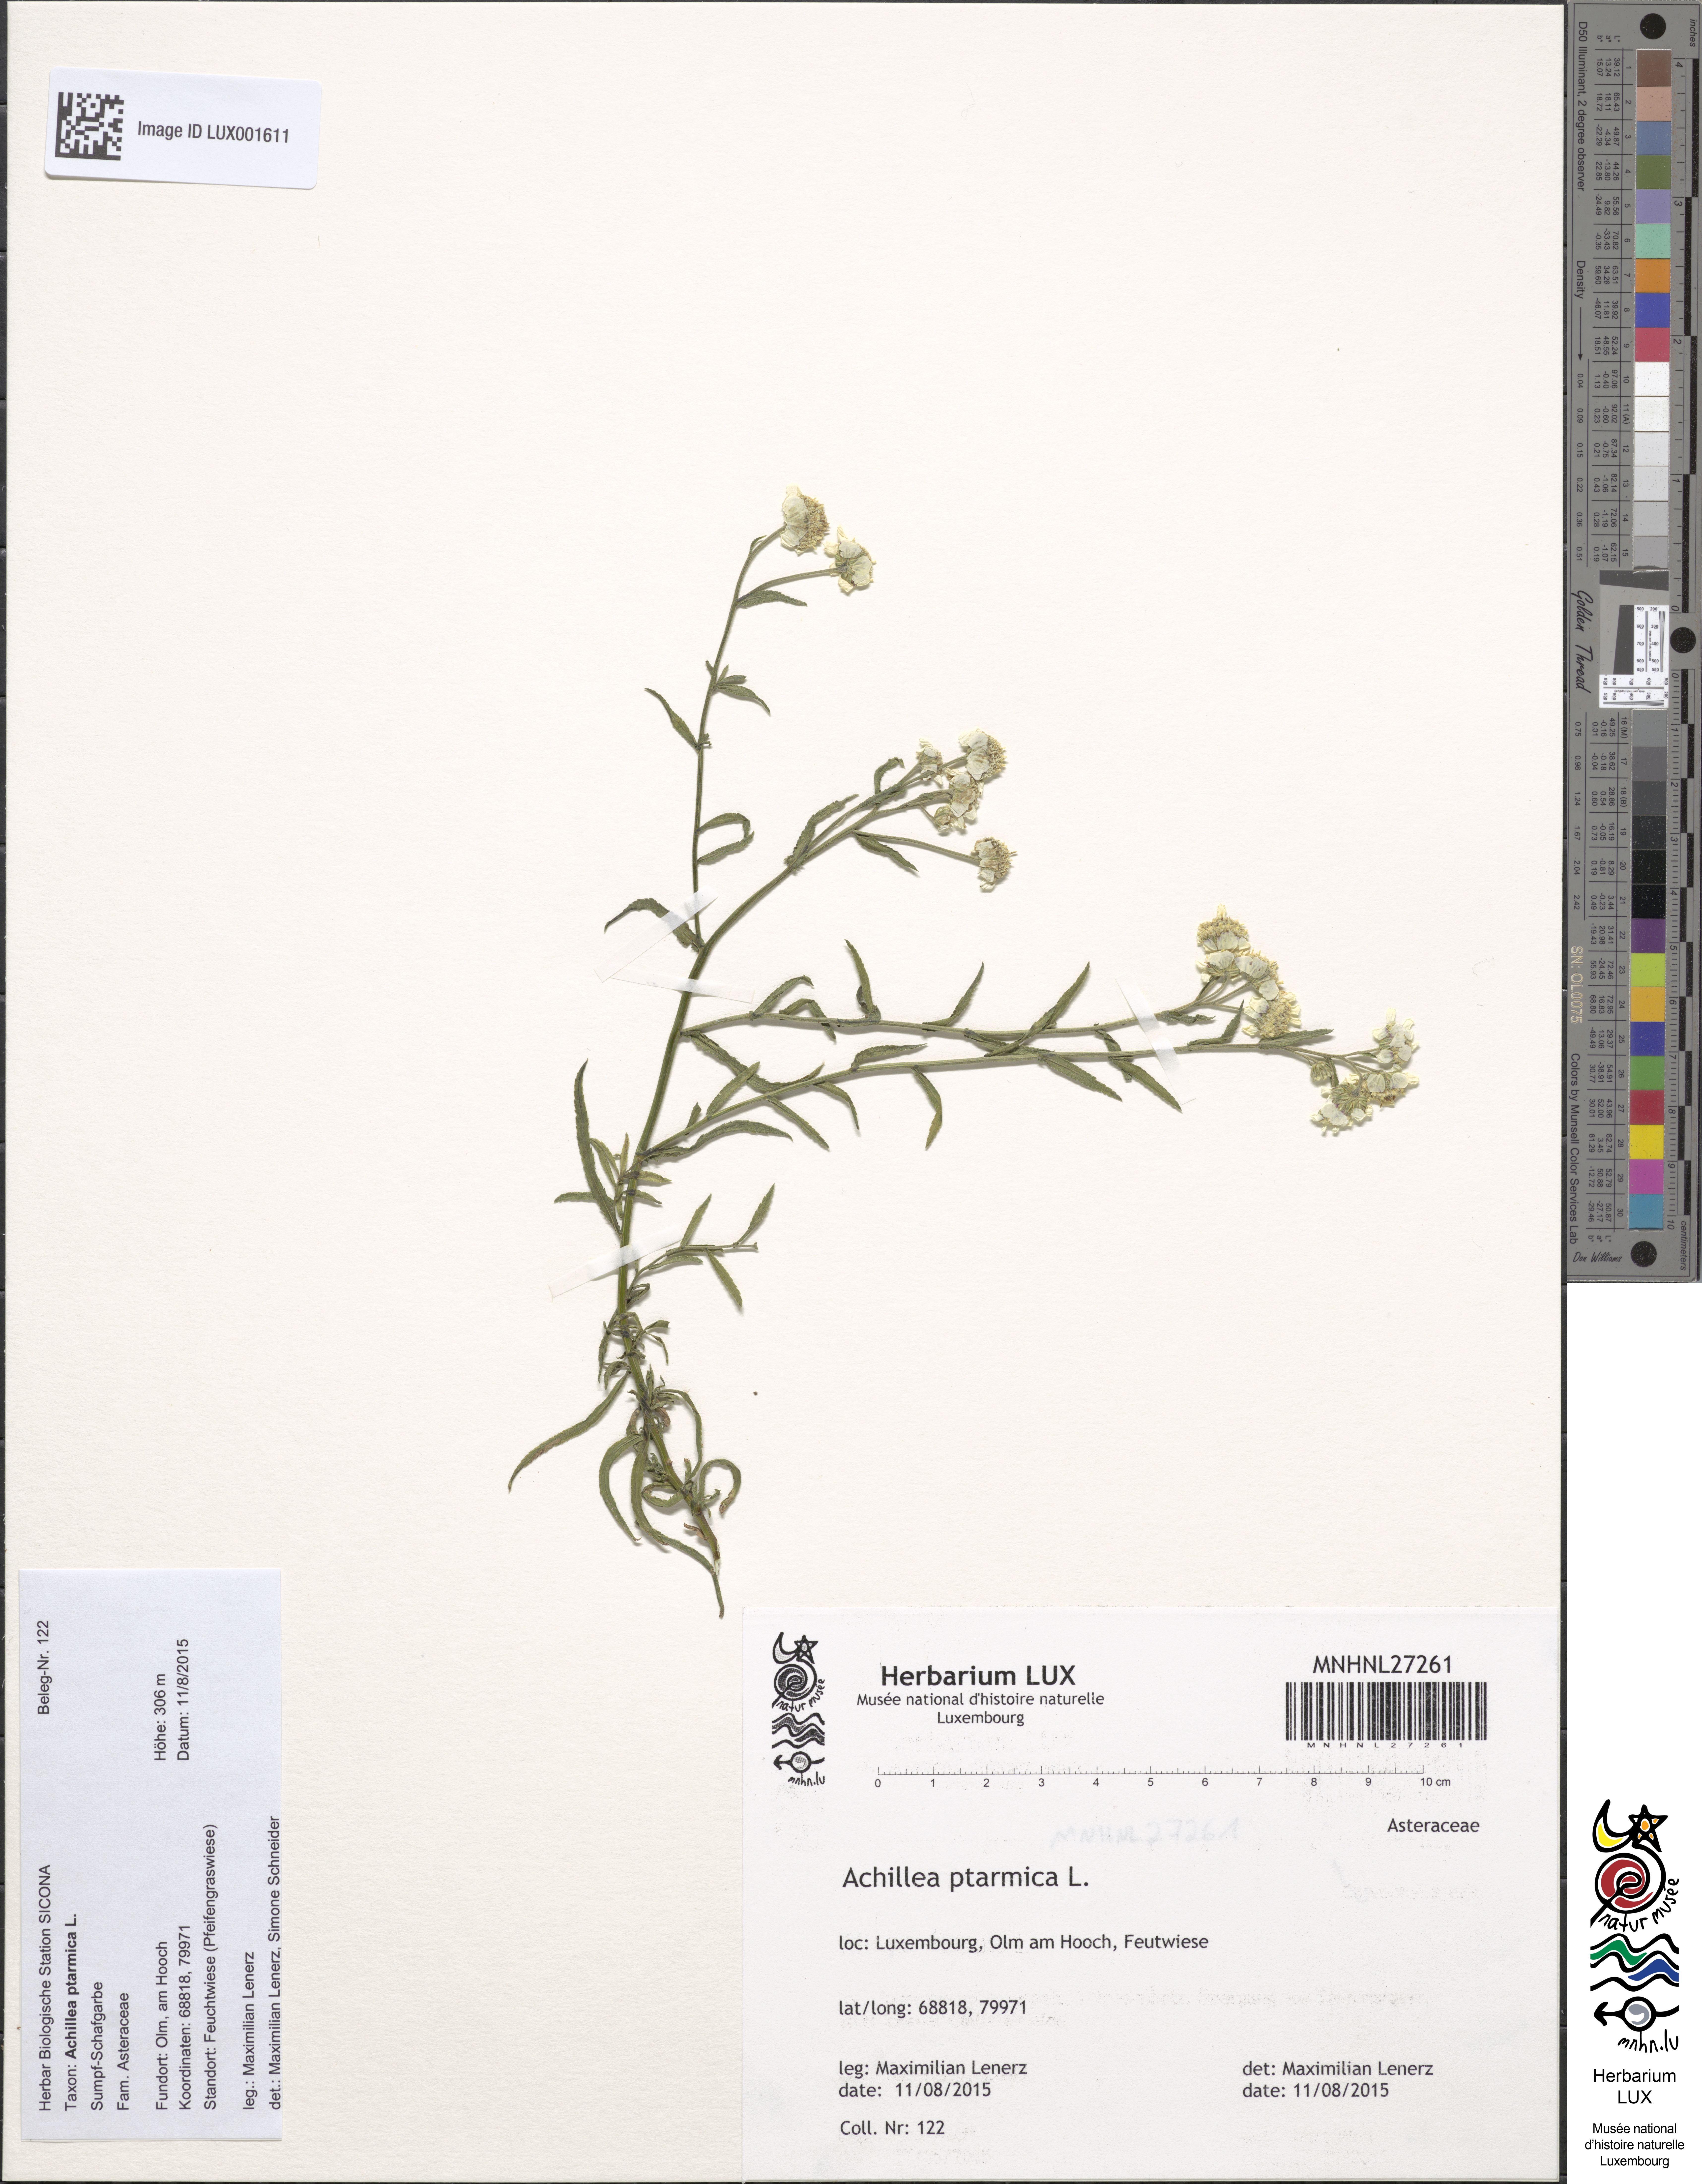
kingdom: Plantae
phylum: Tracheophyta
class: Magnoliopsida
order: Asterales
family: Asteraceae
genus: Achillea
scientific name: Achillea ptarmica
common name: Sneezeweed
